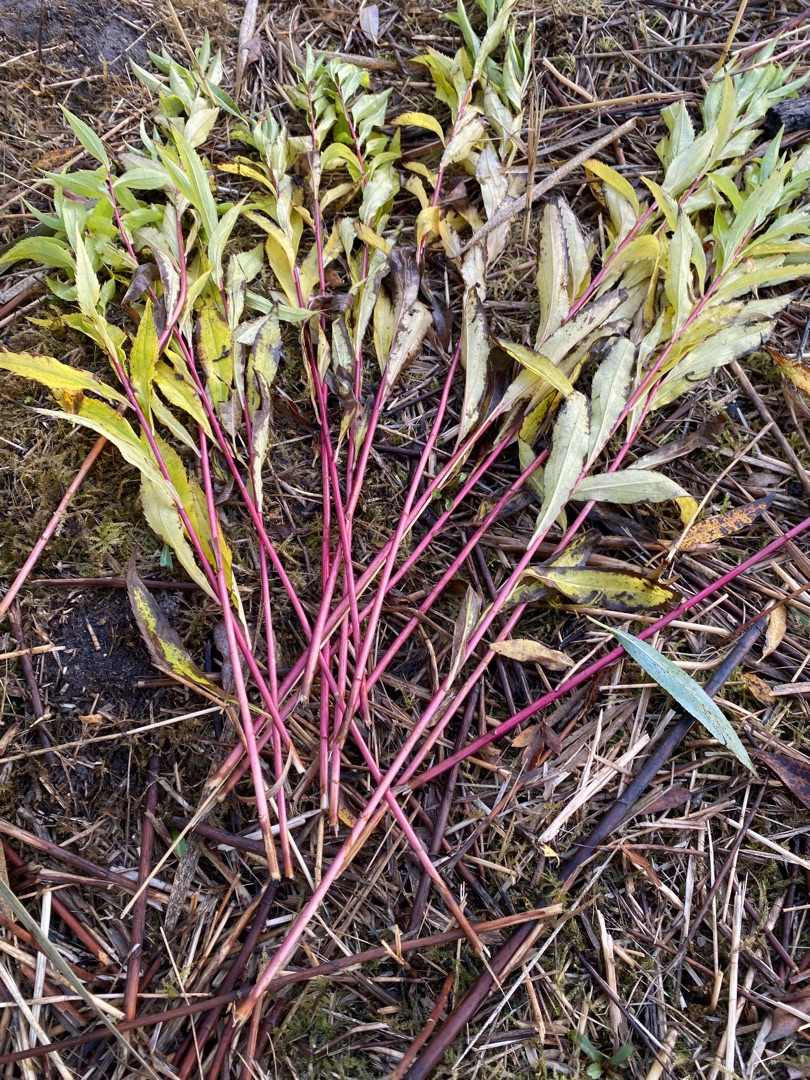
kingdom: Plantae
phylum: Tracheophyta
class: Magnoliopsida
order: Asterales
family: Asteraceae
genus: Solidago
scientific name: Solidago gigantea
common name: Sildig gyldenris
